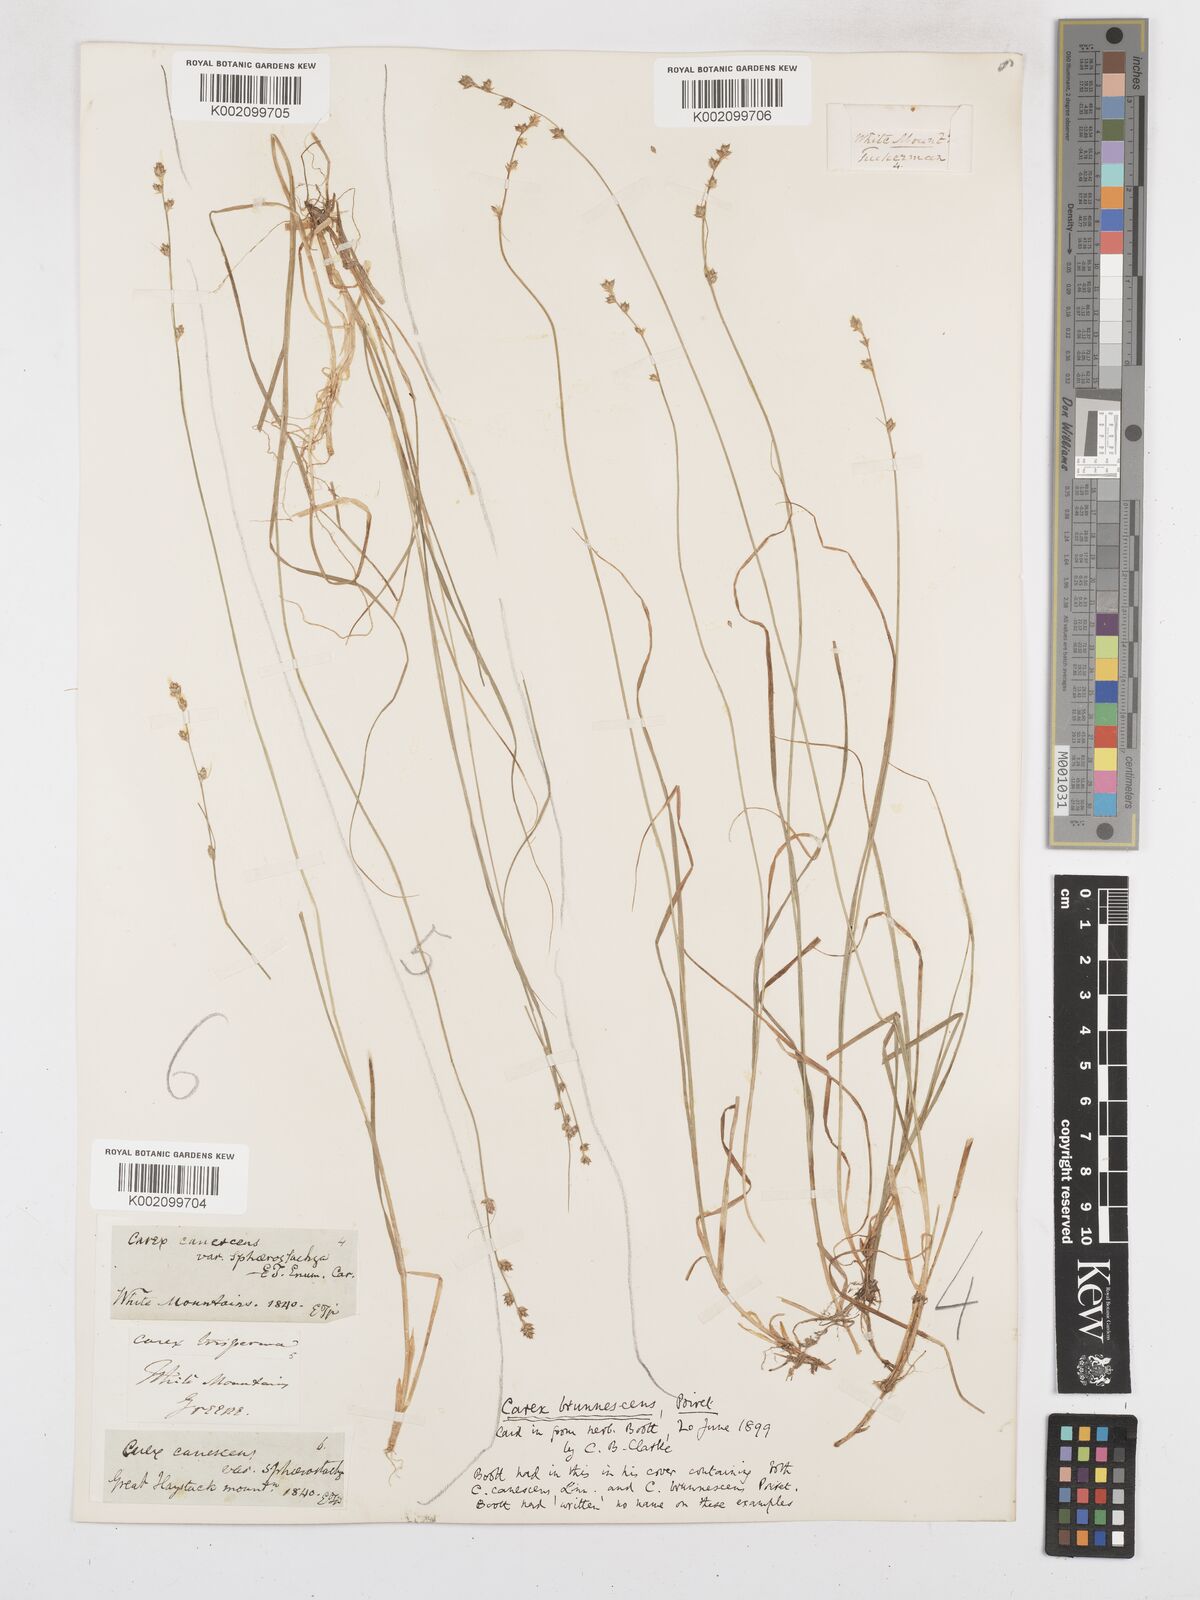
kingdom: Plantae
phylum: Tracheophyta
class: Liliopsida
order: Poales
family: Cyperaceae
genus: Carex
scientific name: Carex brunnescens
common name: Brown sedge
